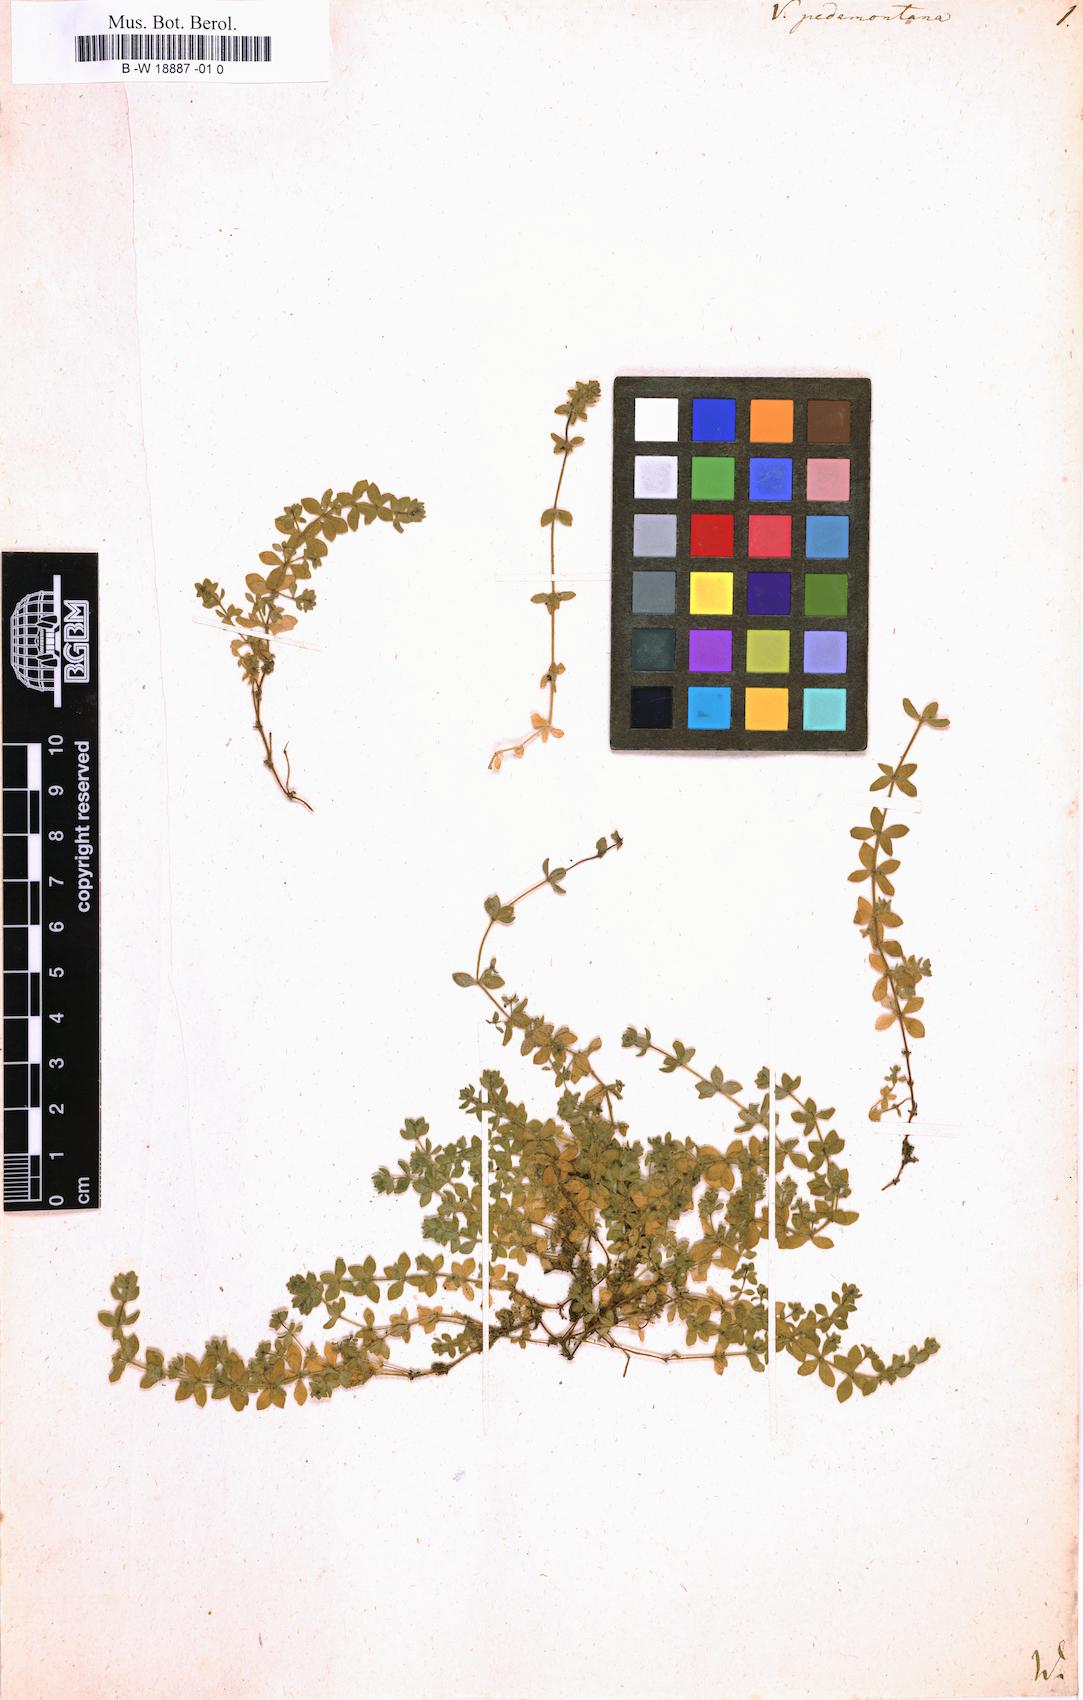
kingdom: Plantae
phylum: Tracheophyta
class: Magnoliopsida
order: Gentianales
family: Rubiaceae
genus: Cruciata
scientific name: Cruciata pedemontana
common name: Piedmont bedstraw
